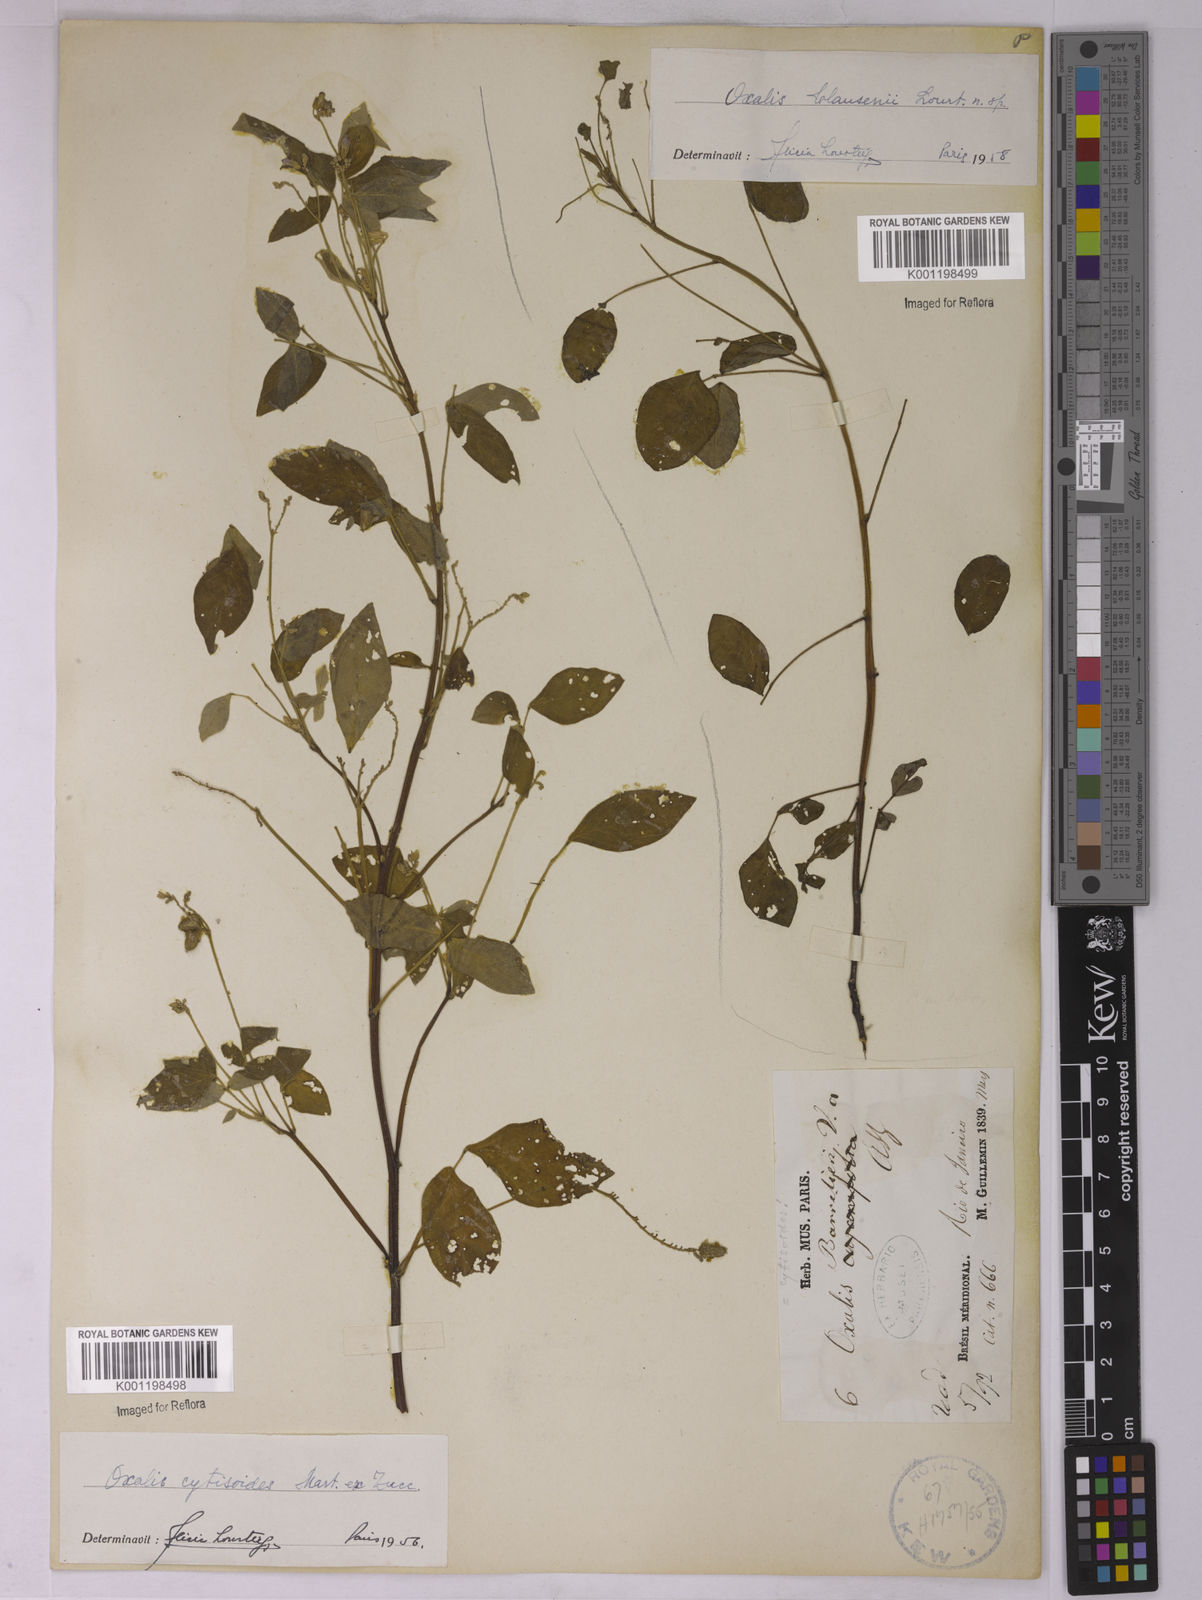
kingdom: Plantae
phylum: Tracheophyta
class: Magnoliopsida
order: Oxalidales
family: Oxalidaceae
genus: Oxalis
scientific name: Oxalis clausenii
